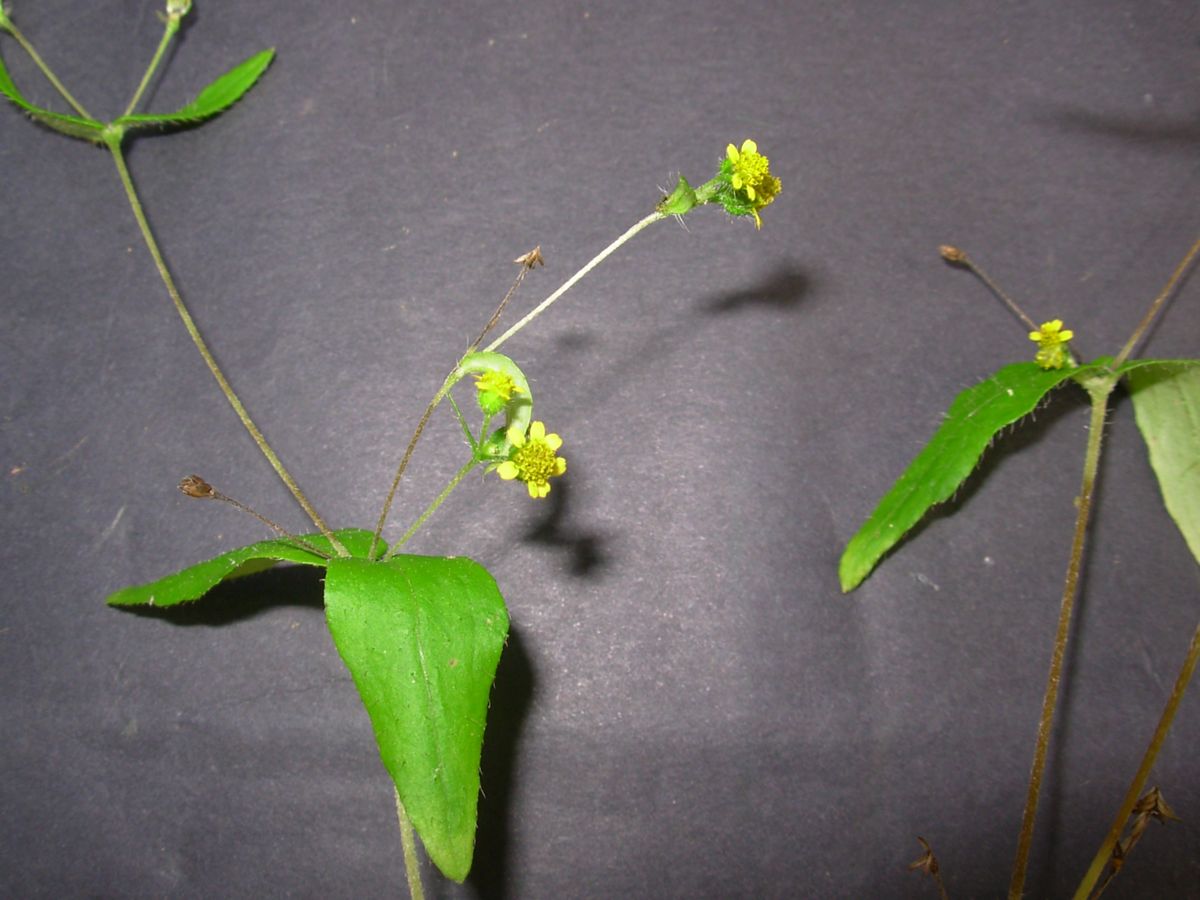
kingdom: Plantae
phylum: Tracheophyta
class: Magnoliopsida
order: Asterales
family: Asteraceae
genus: Galinsoga
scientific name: Galinsoga quadriradiata
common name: Shaggy soldier
